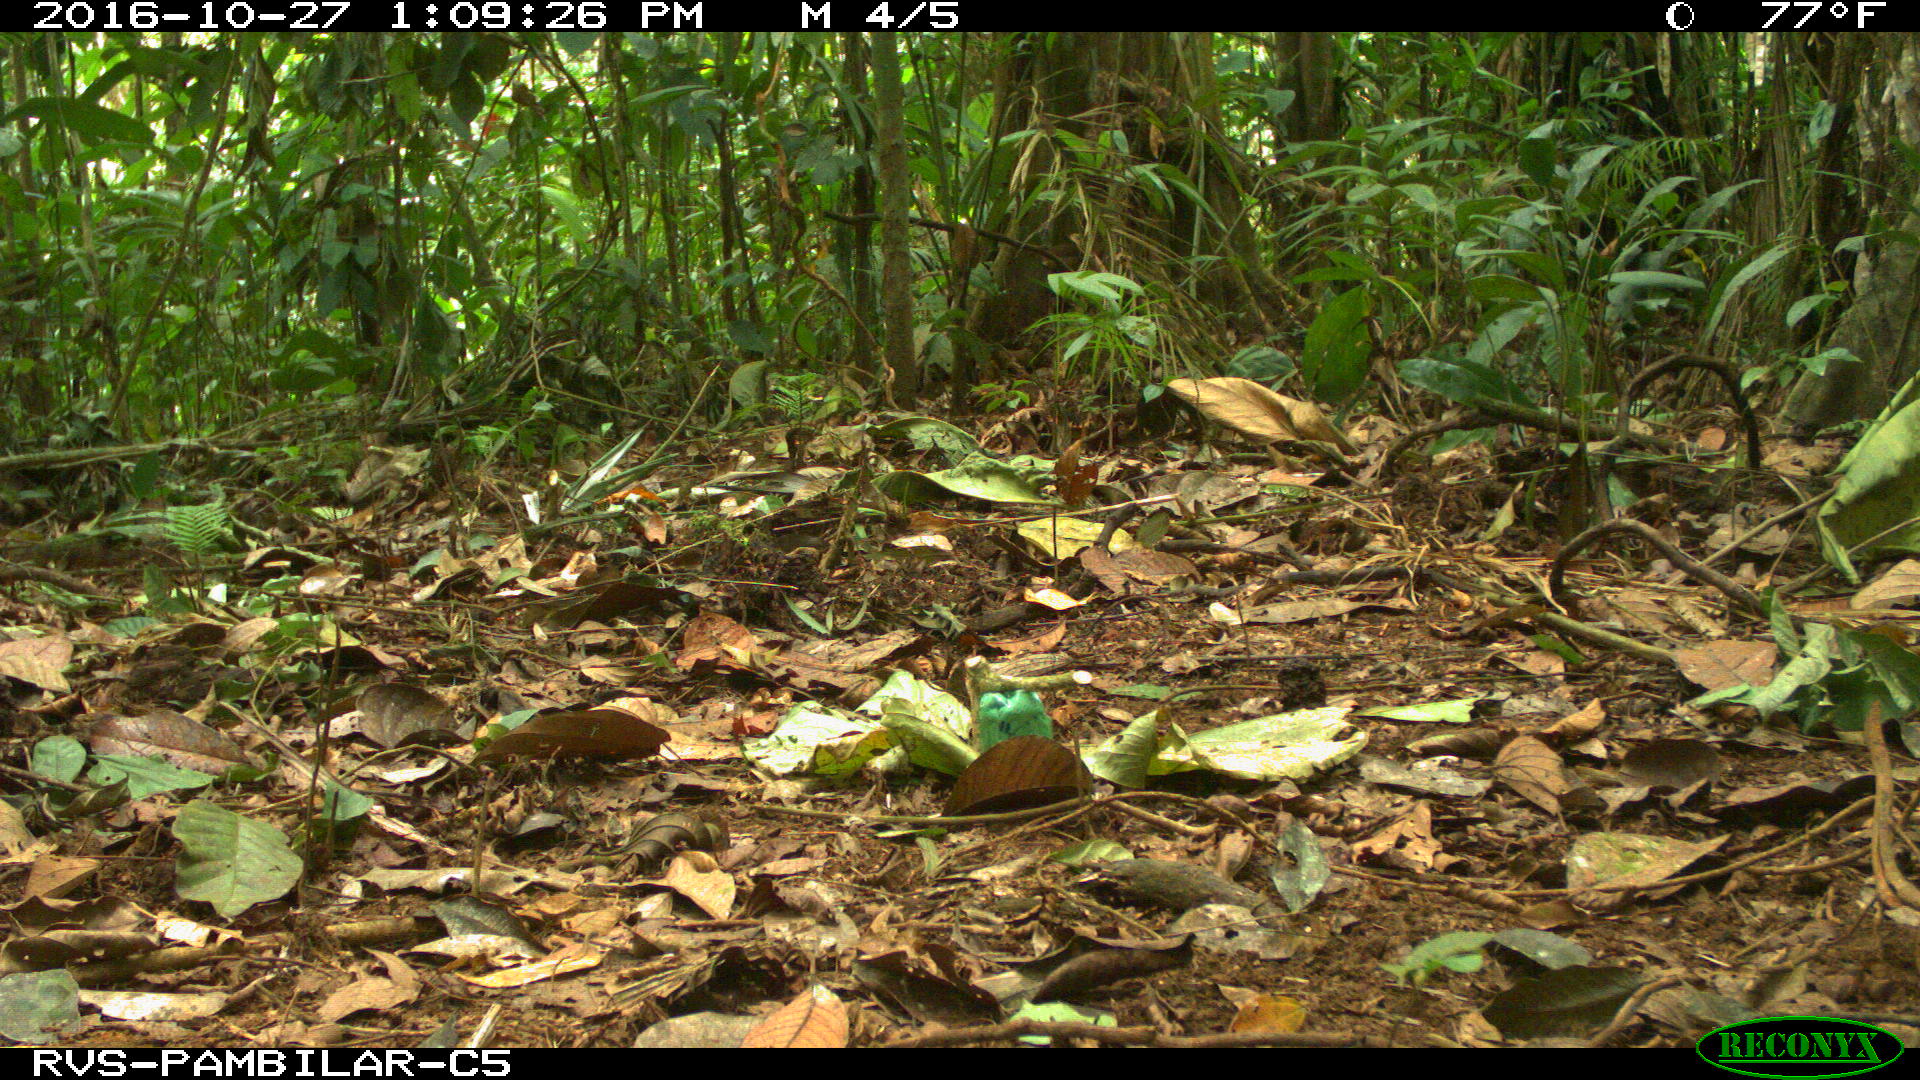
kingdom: Animalia
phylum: Chordata
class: Mammalia
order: Rodentia
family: Dasyproctidae
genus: Dasyprocta
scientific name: Dasyprocta punctata
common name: Central american agouti
